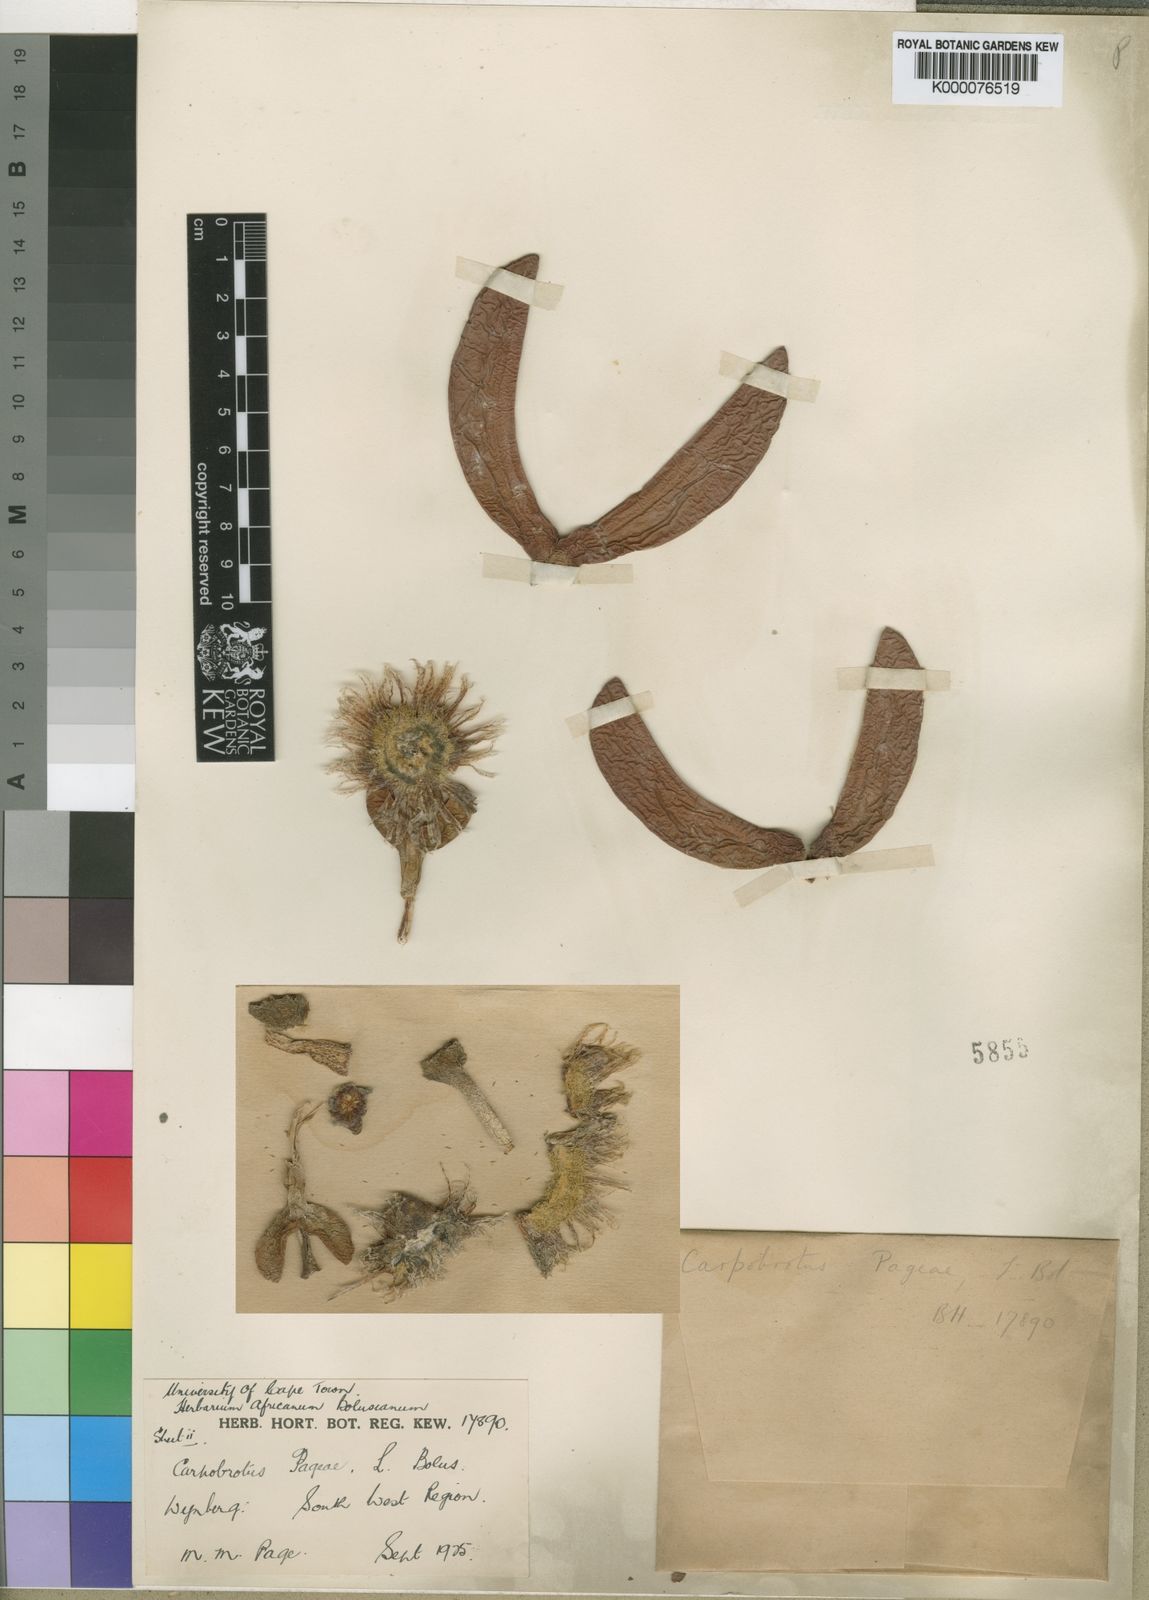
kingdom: Plantae
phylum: Tracheophyta
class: Magnoliopsida
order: Caryophyllales
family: Aizoaceae
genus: Carpobrotus
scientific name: Carpobrotus mellei
